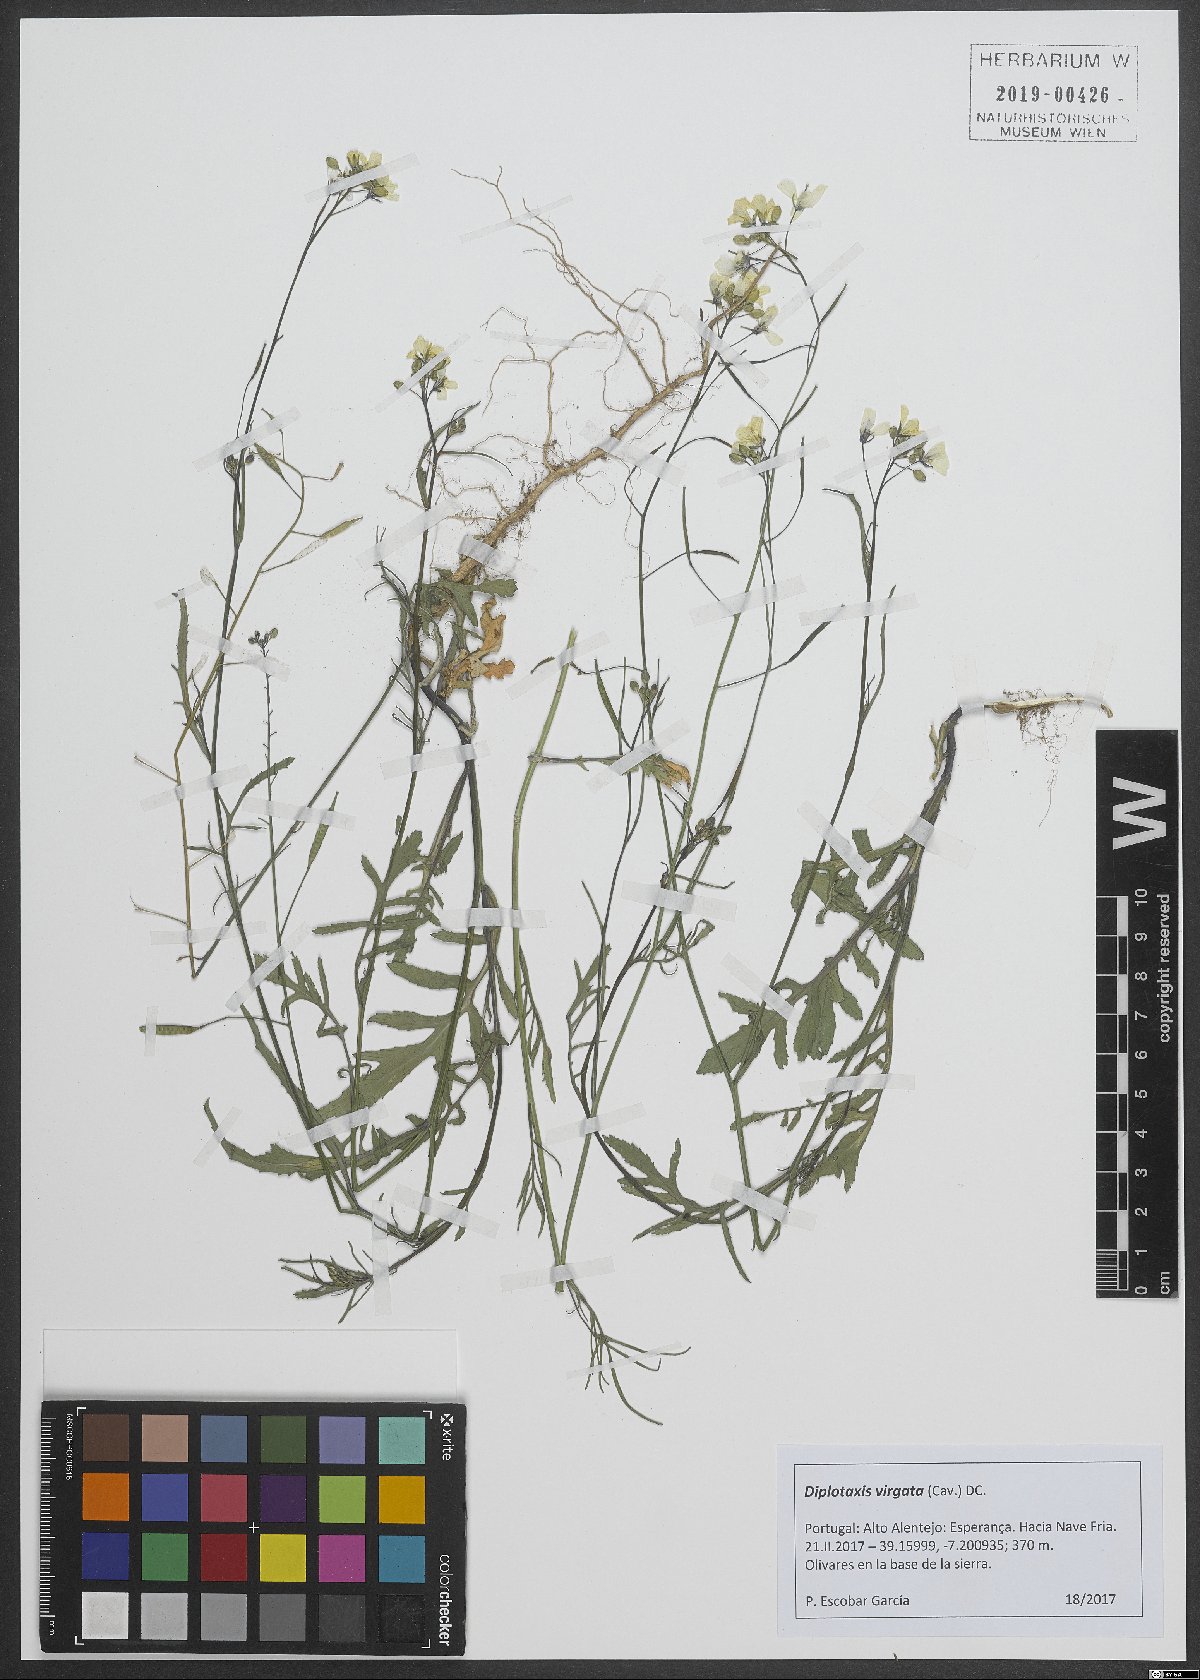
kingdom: Plantae
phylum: Tracheophyta
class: Magnoliopsida
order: Brassicales
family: Brassicaceae
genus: Diplotaxis
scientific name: Diplotaxis virgata
